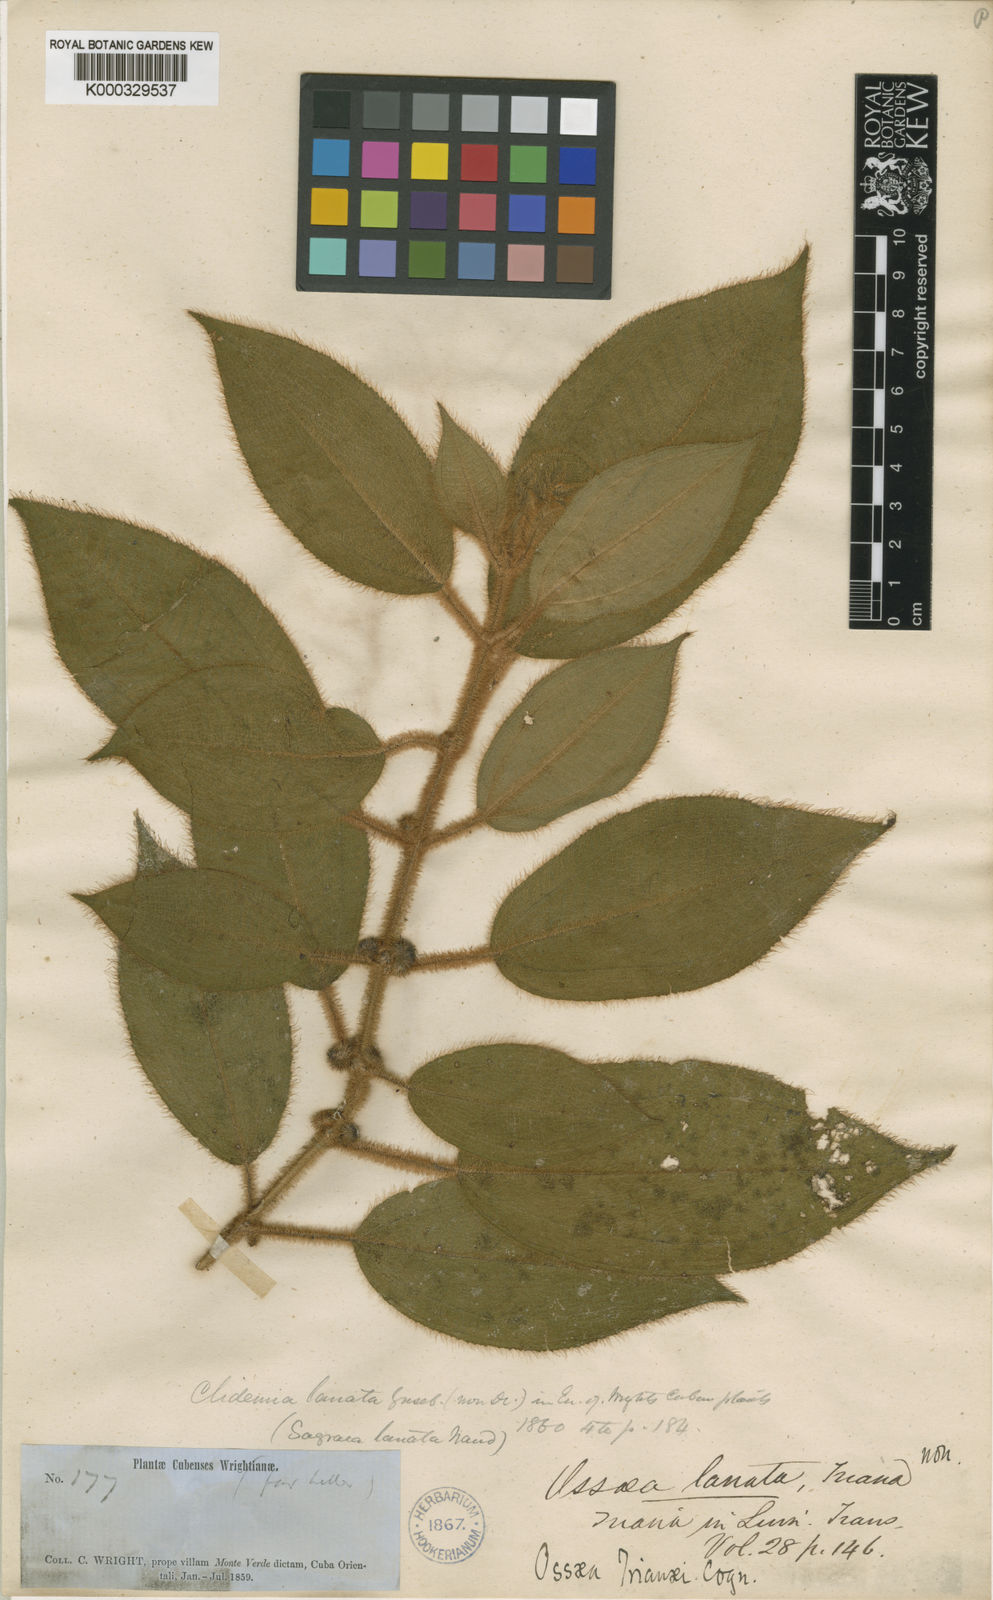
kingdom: Plantae
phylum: Tracheophyta
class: Magnoliopsida
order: Myrtales
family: Melastomataceae
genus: Ossaea
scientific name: Ossaea
